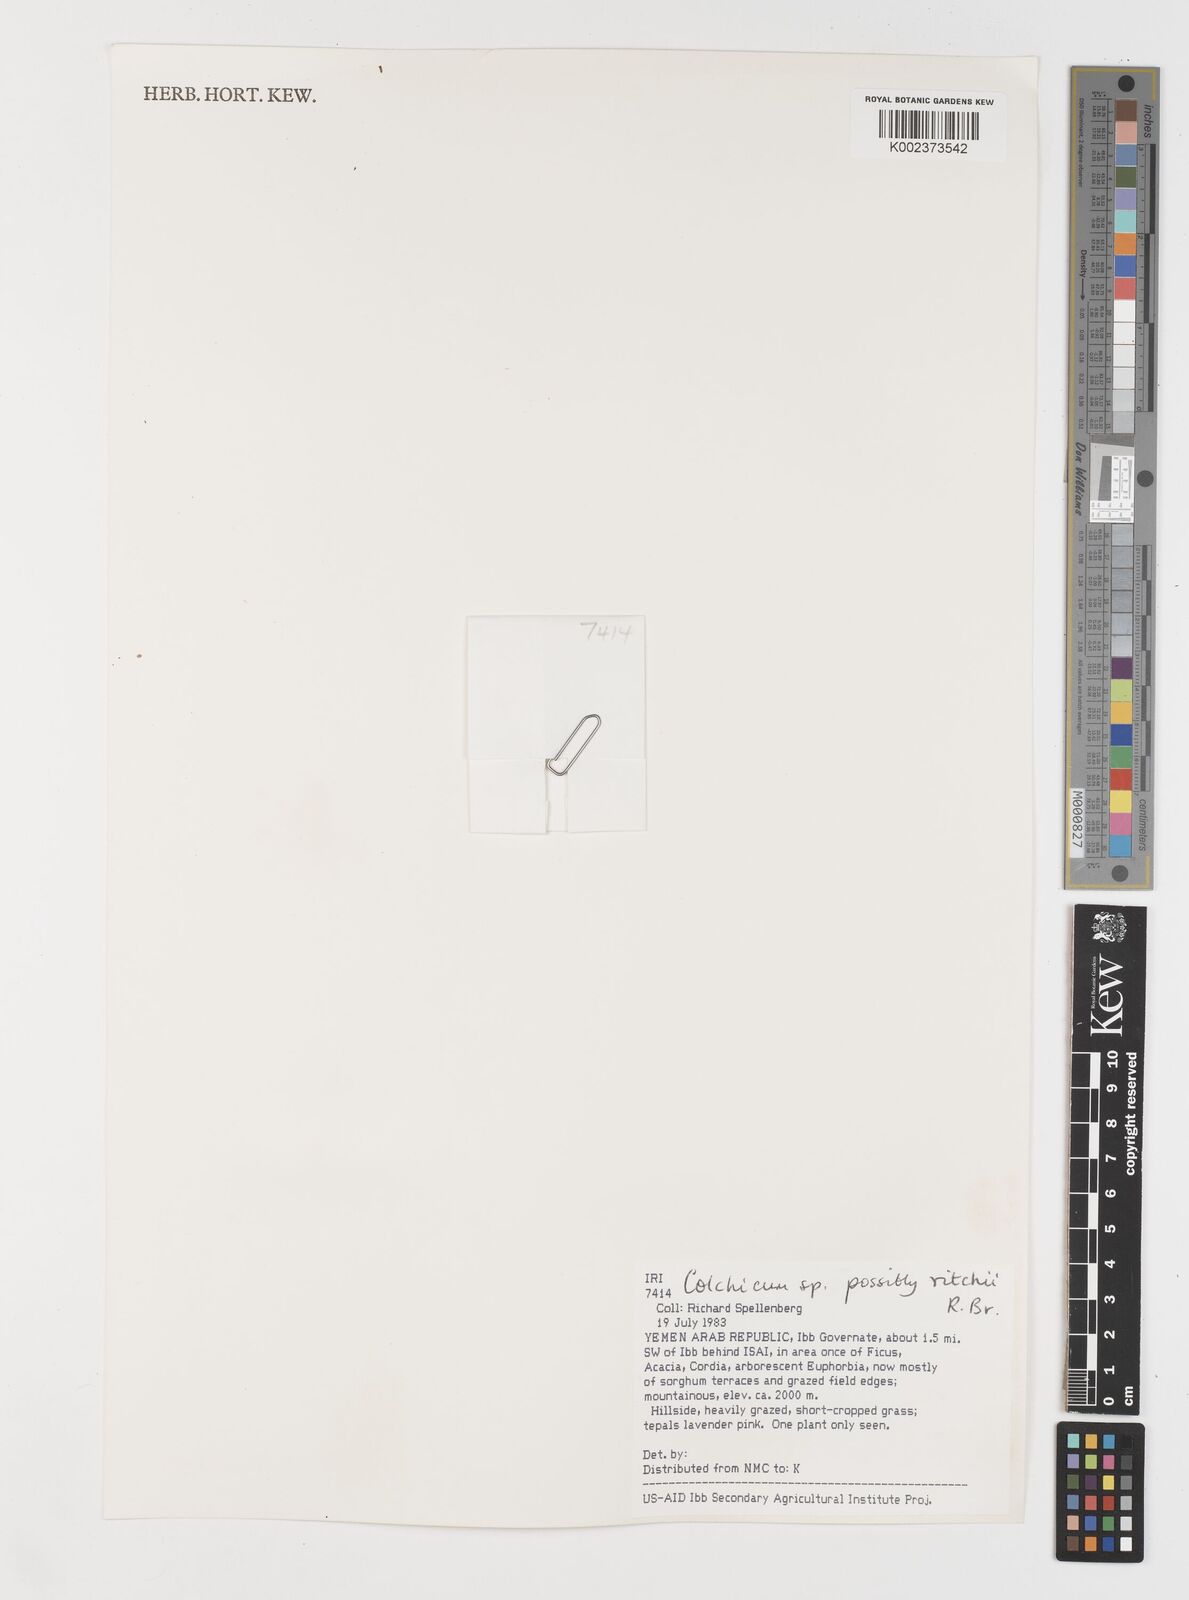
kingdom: Plantae
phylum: Tracheophyta
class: Liliopsida
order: Liliales
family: Colchicaceae
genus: Colchicum
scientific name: Colchicum ritchii
